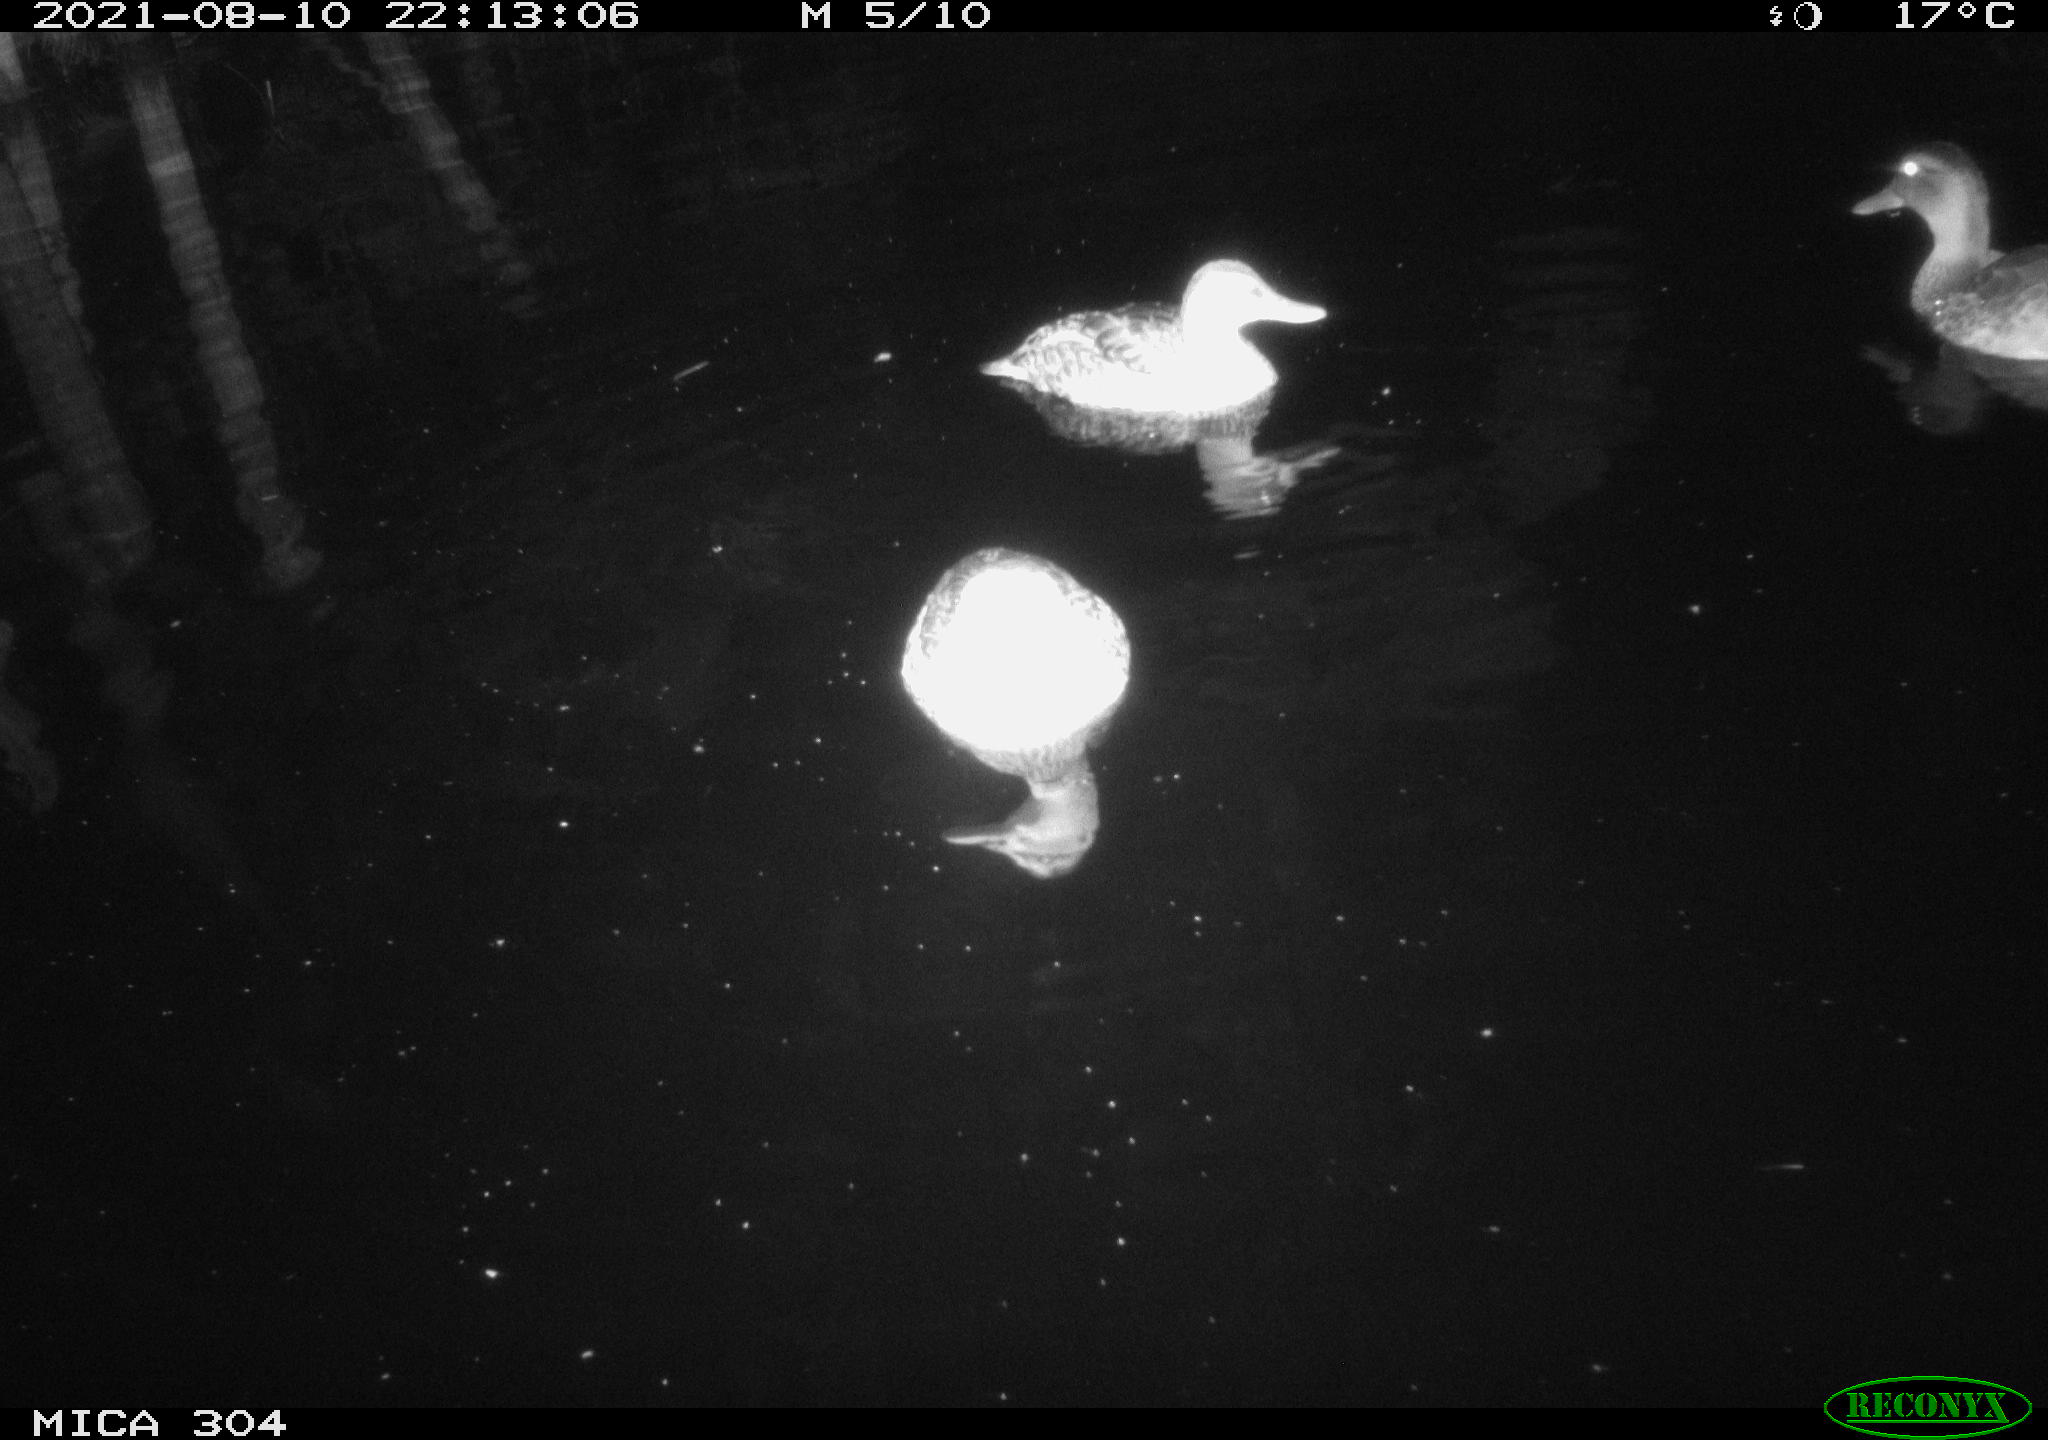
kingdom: Animalia
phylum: Chordata
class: Aves
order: Anseriformes
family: Anatidae
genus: Mareca
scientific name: Mareca strepera
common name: Gadwall
